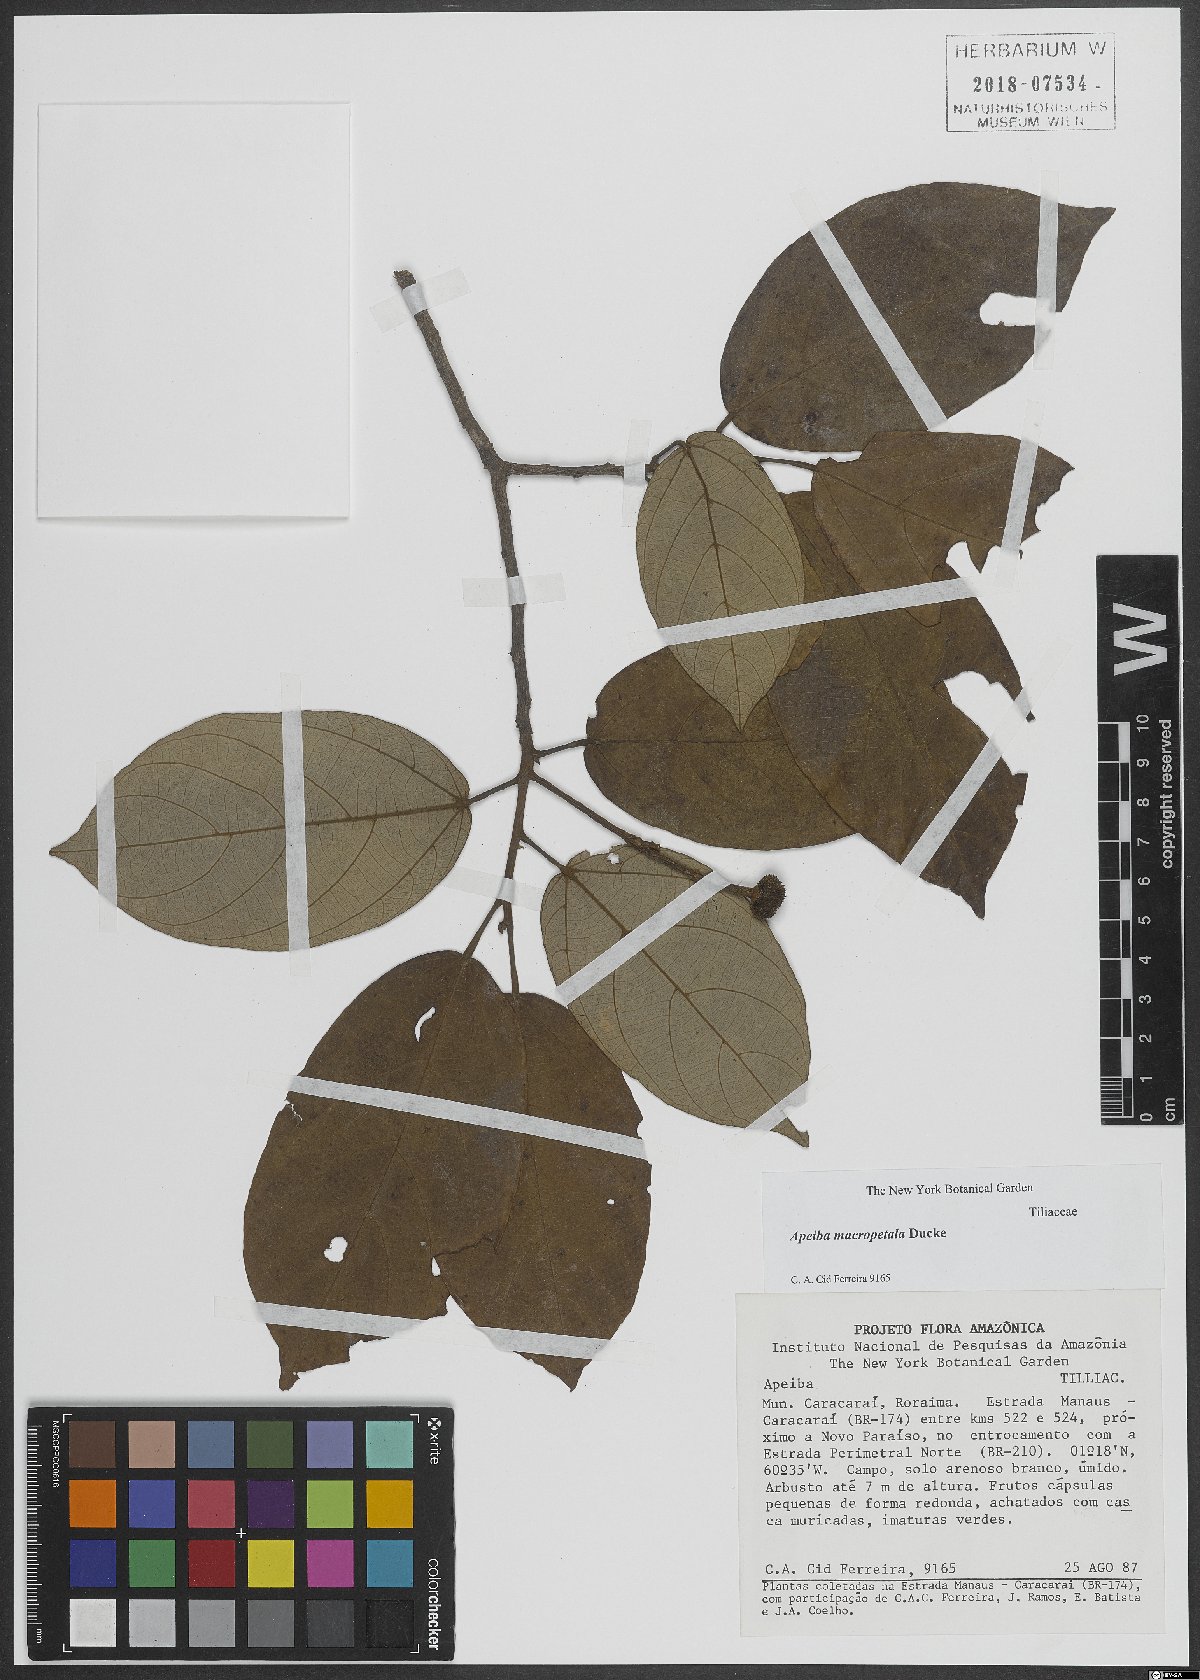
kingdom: Plantae
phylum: Tracheophyta
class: Magnoliopsida
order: Malvales
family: Malvaceae
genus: Apeiba
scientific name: Apeiba macropetala
